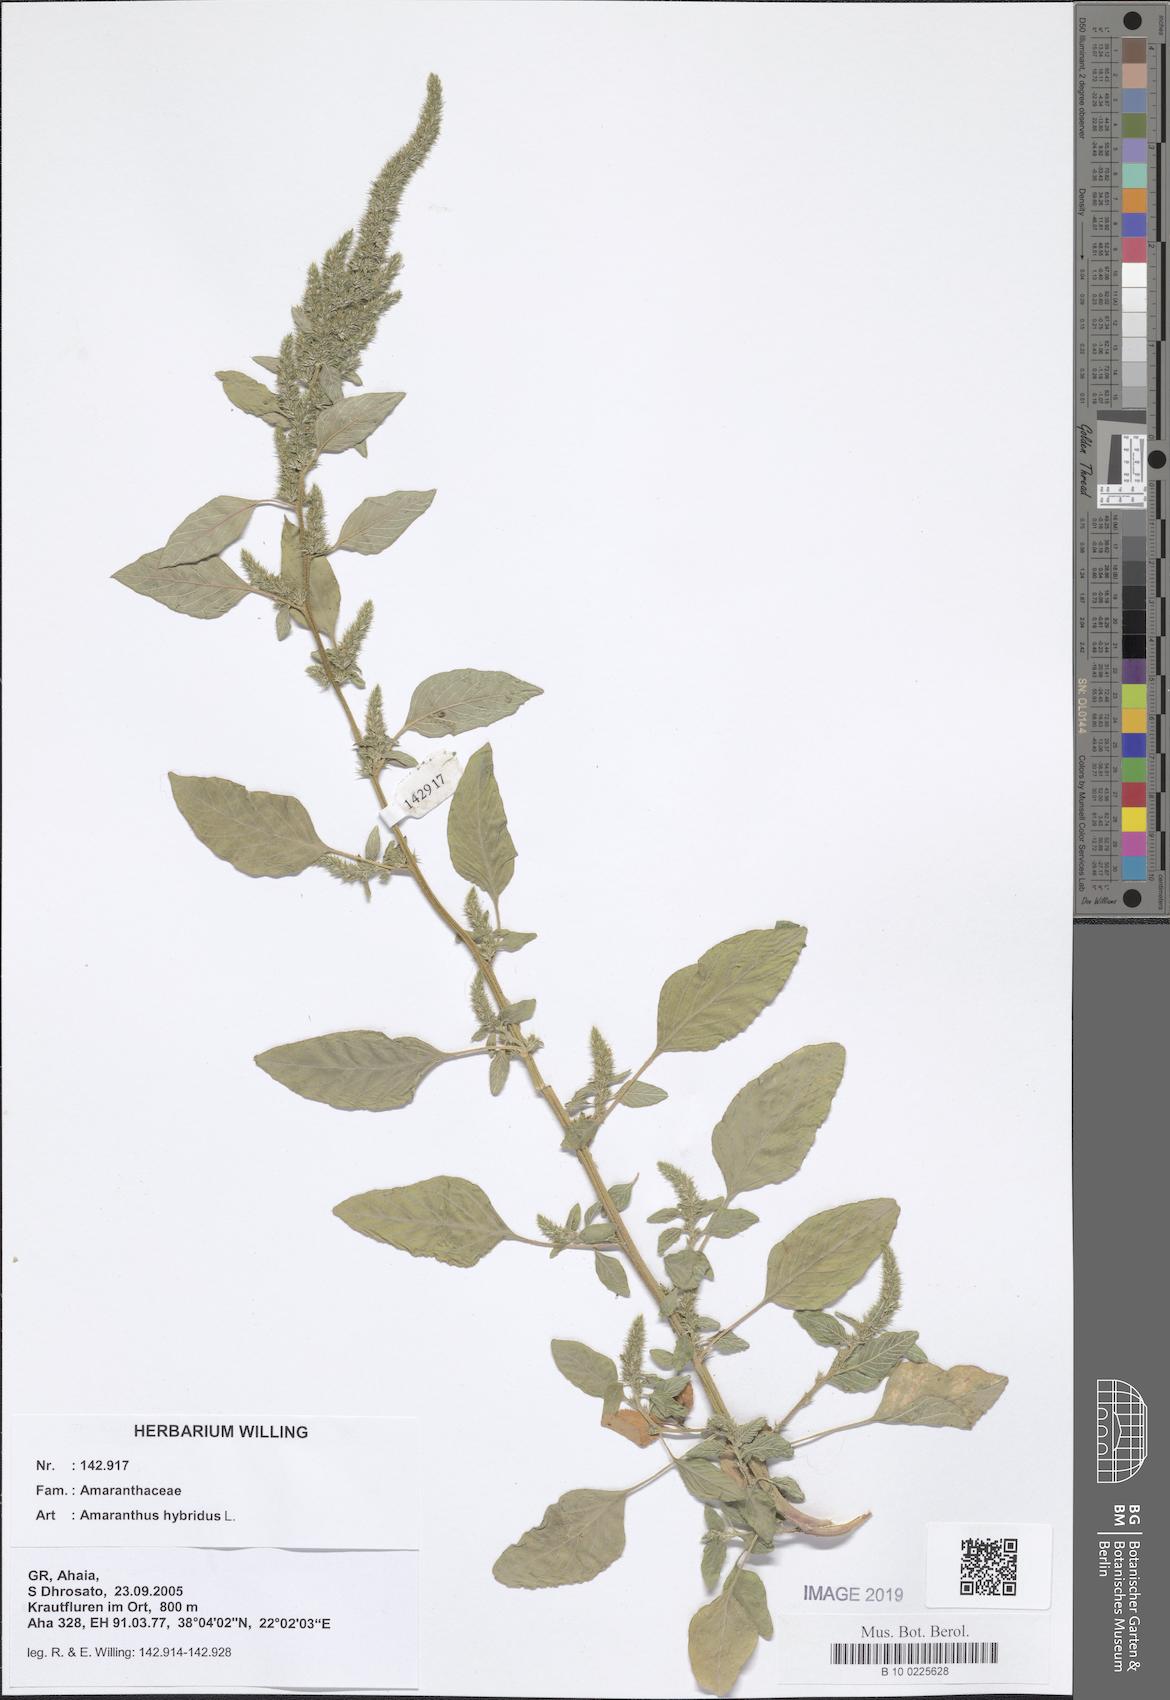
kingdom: Plantae
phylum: Tracheophyta
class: Magnoliopsida
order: Caryophyllales
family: Amaranthaceae
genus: Amaranthus
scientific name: Amaranthus hybridus
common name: Green amaranth
